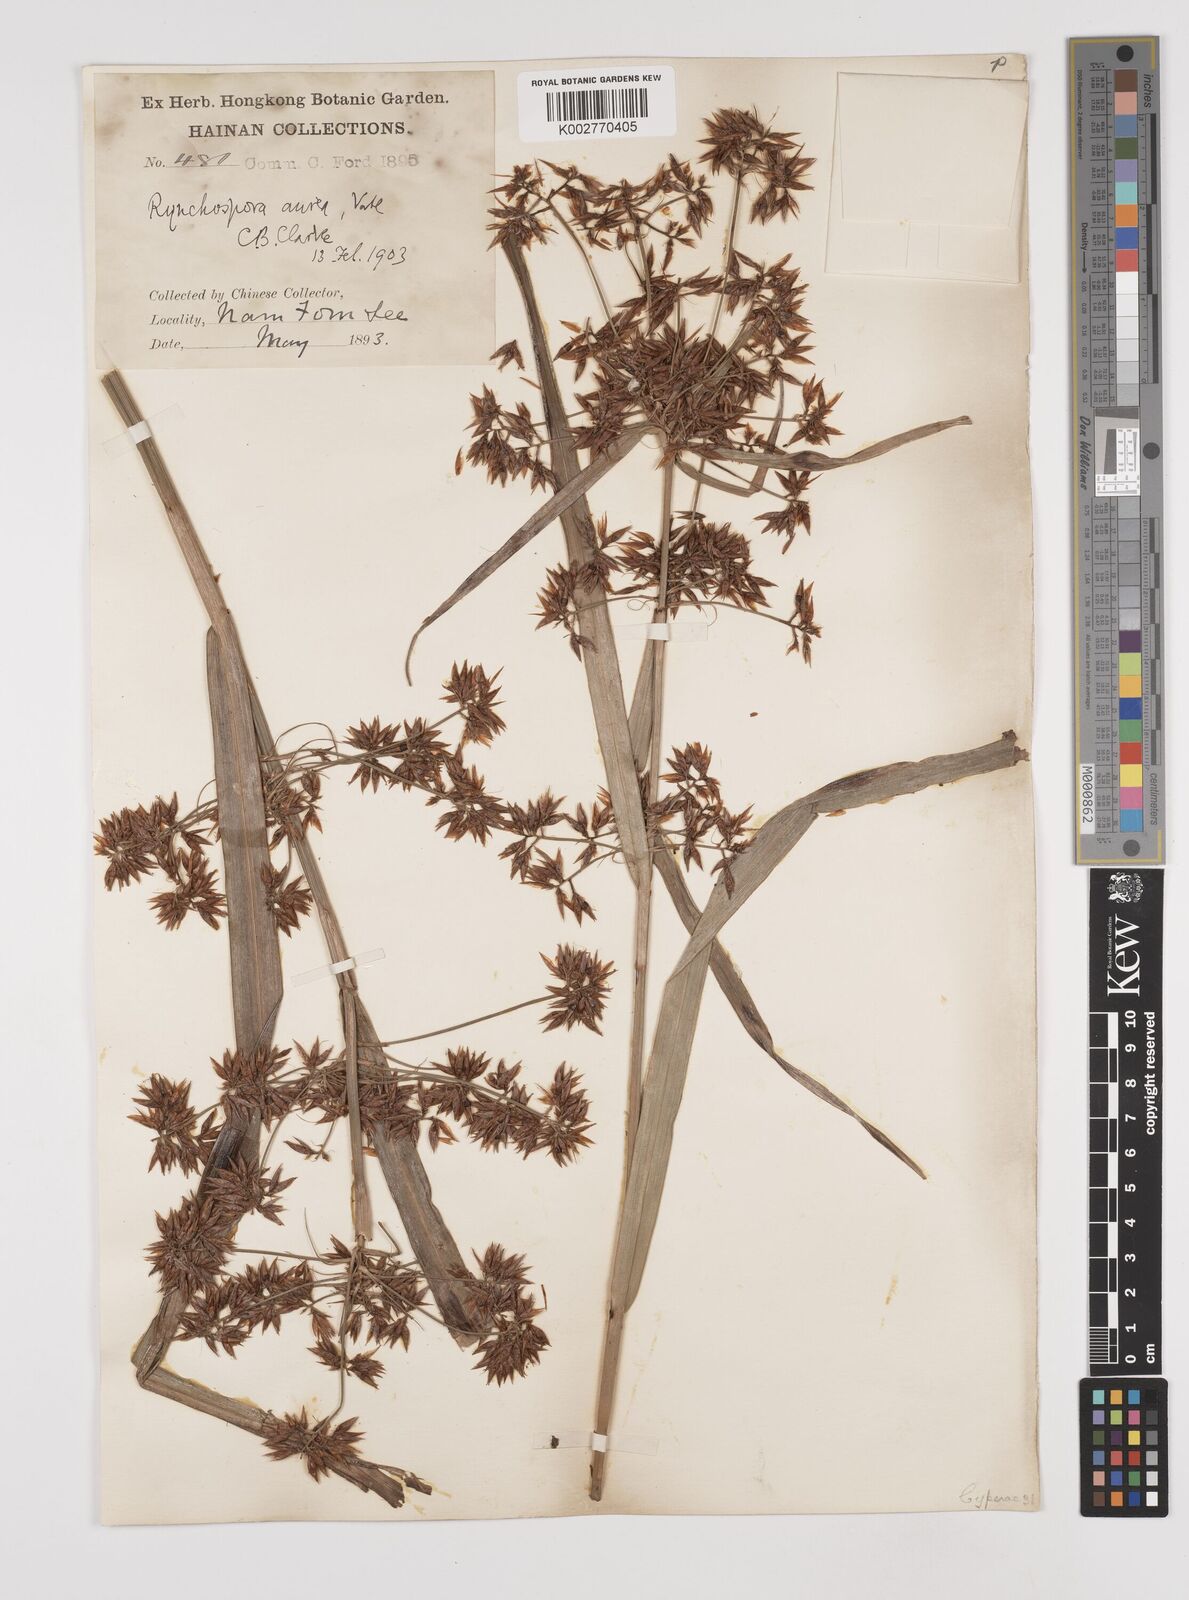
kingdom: Plantae
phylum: Tracheophyta
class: Liliopsida
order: Poales
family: Cyperaceae
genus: Rhynchospora
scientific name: Rhynchospora corymbosa
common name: Golden beak sedge
